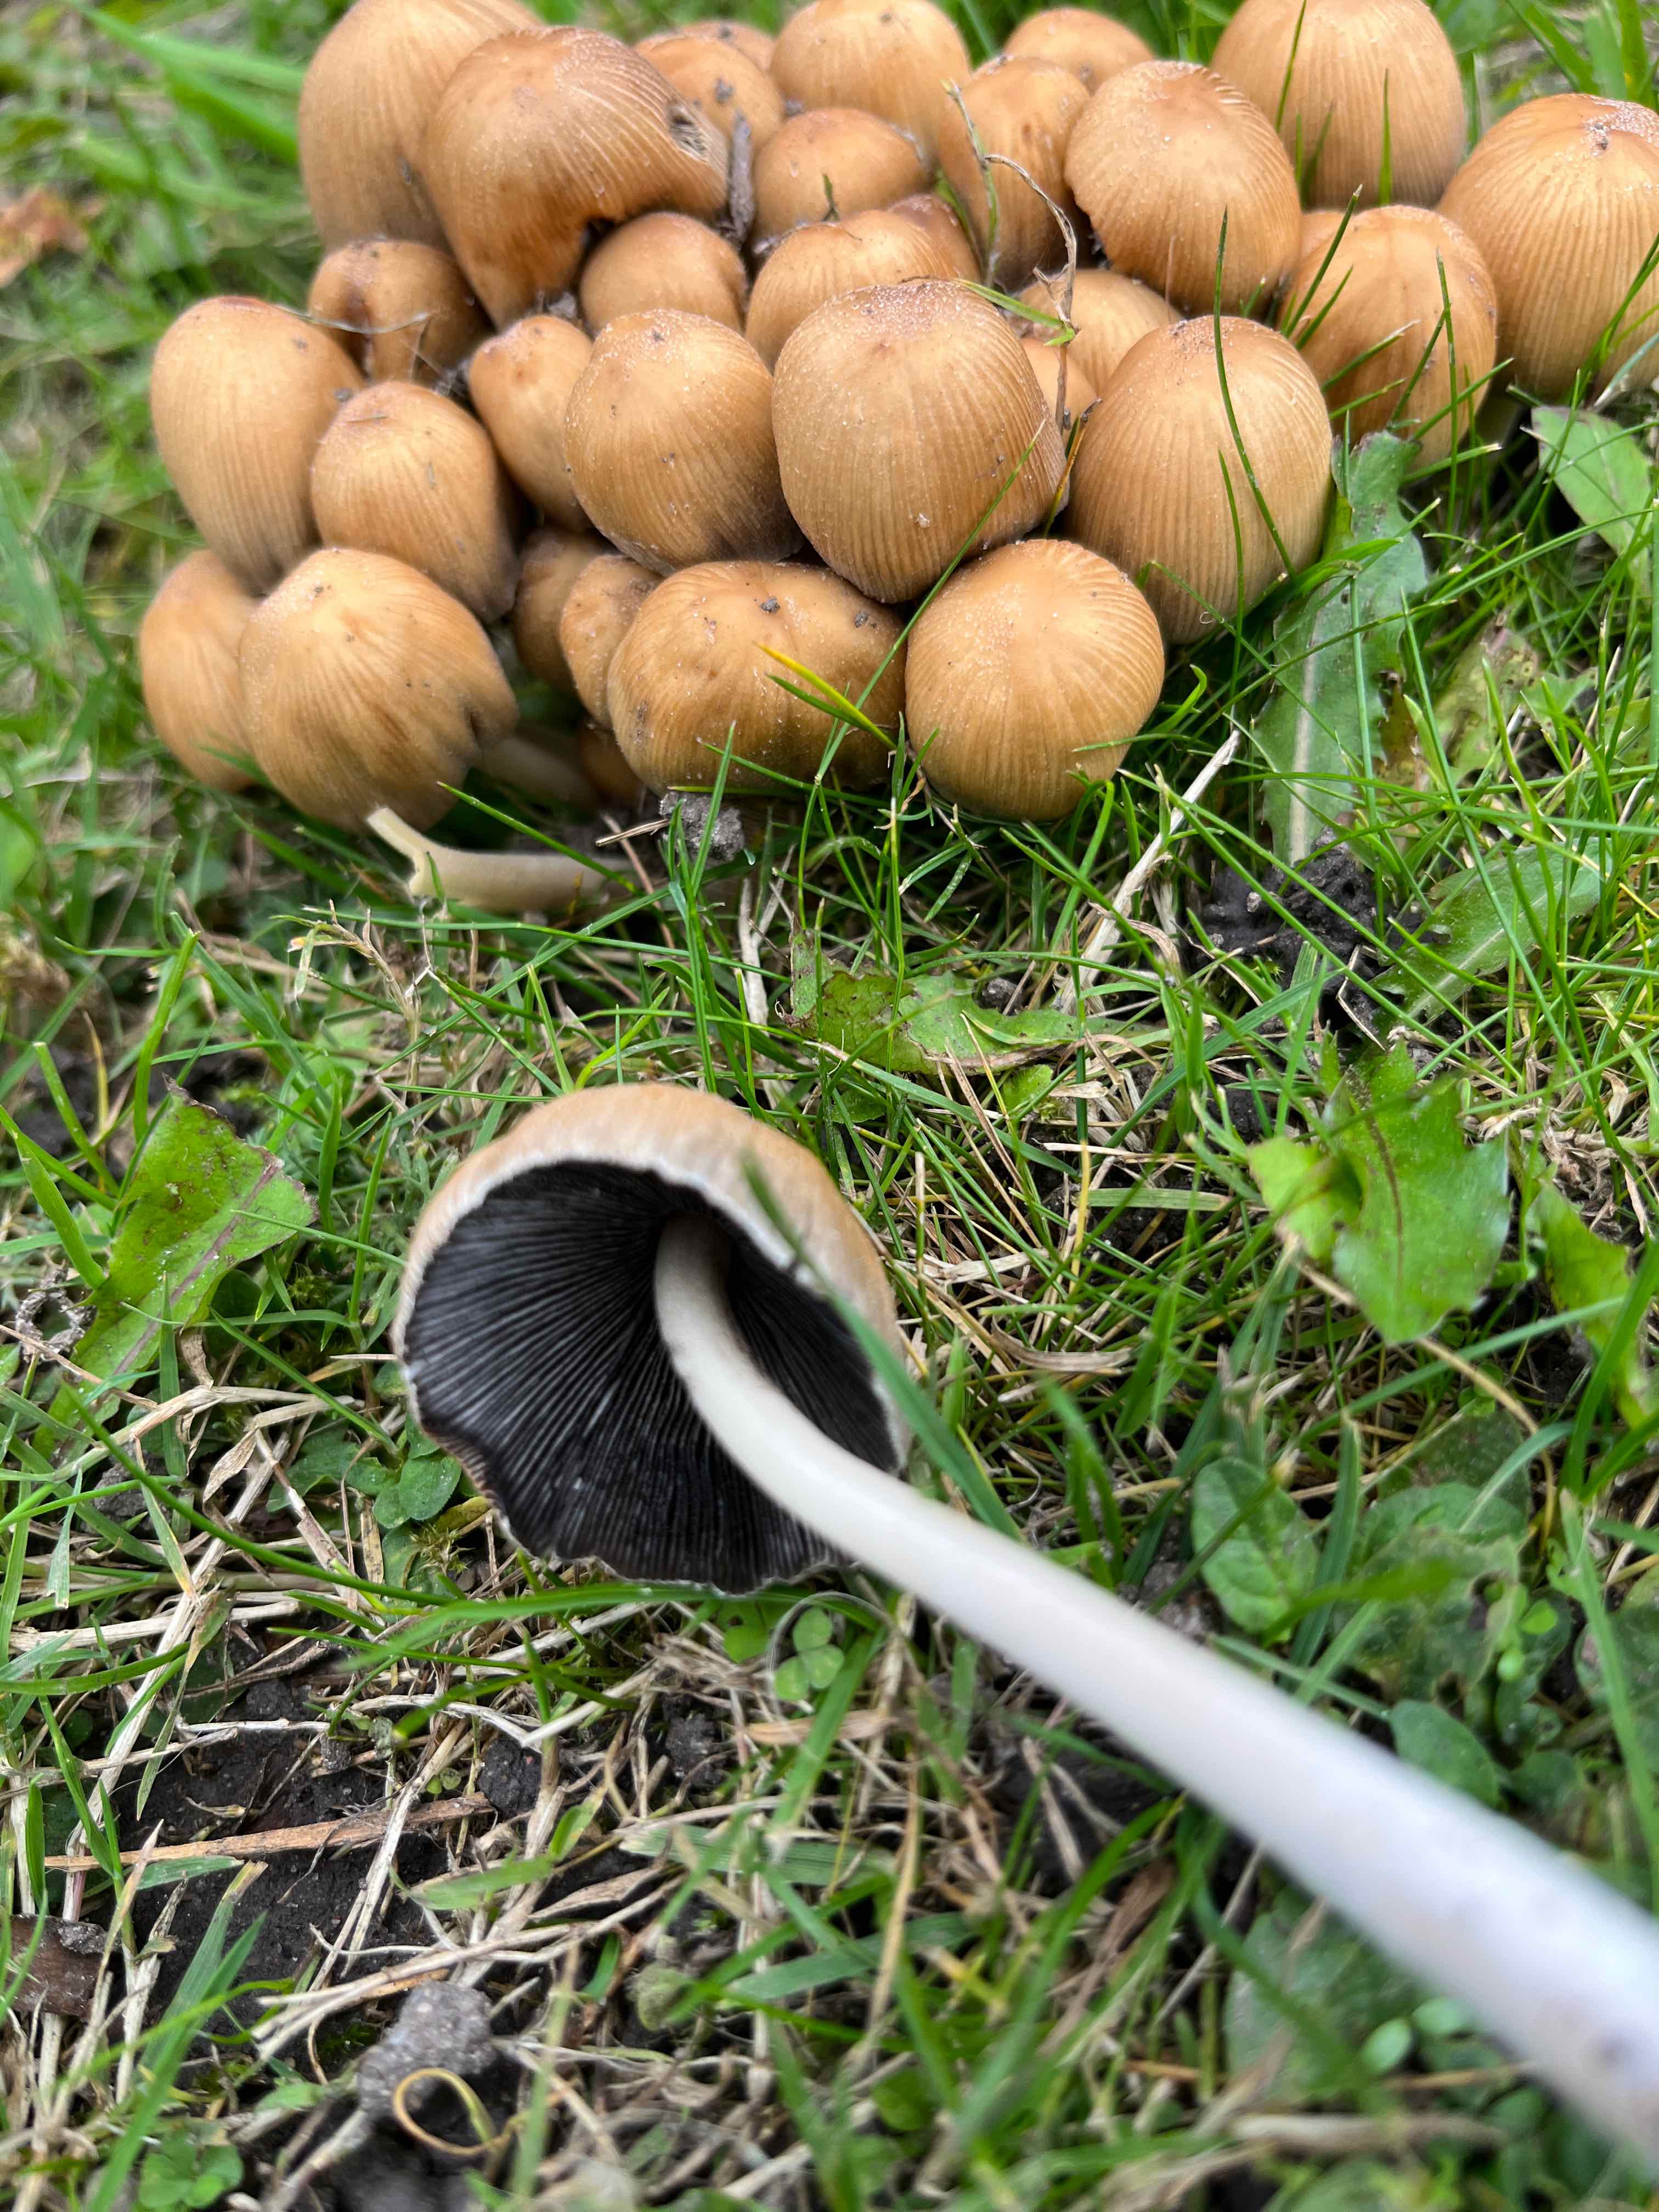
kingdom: Fungi
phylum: Basidiomycota
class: Agaricomycetes
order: Agaricales
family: Psathyrellaceae
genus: Coprinellus
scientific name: Coprinellus micaceus
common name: glimmer-blækhat
